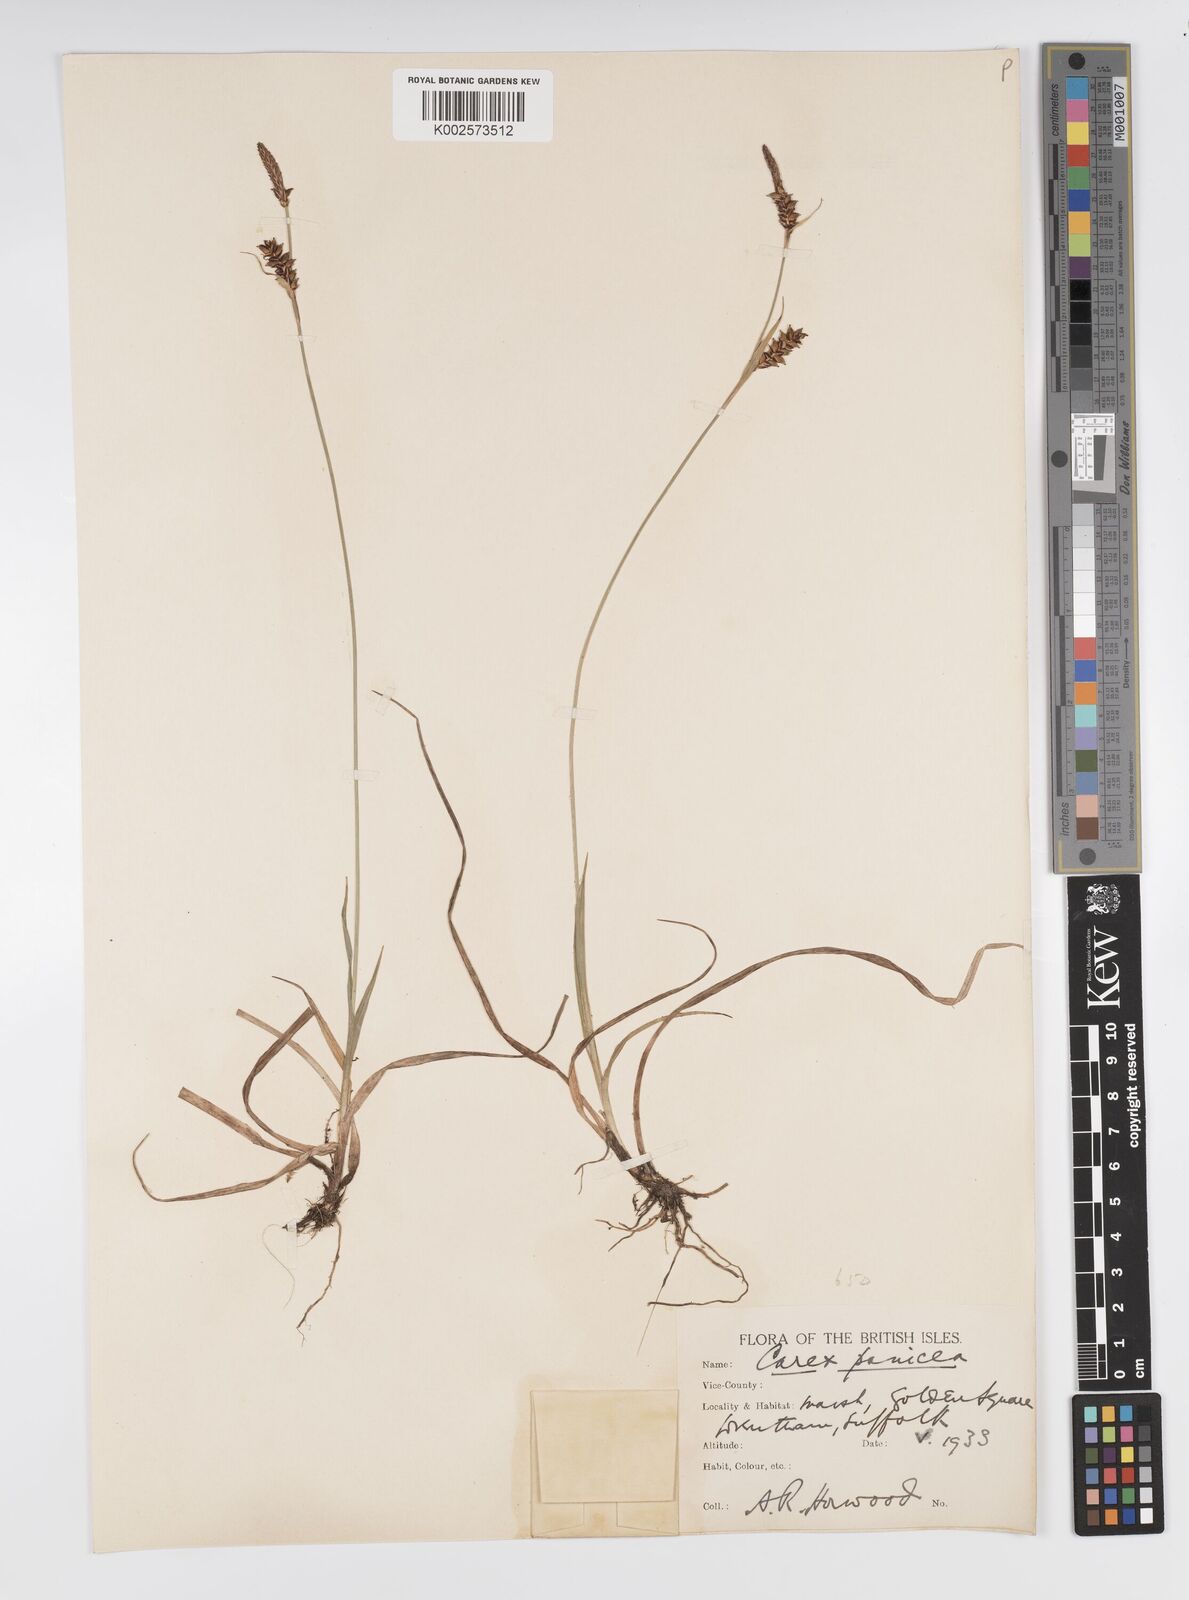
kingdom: Plantae
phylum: Tracheophyta
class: Liliopsida
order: Poales
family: Cyperaceae
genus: Carex
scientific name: Carex panicea
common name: Carnation sedge
